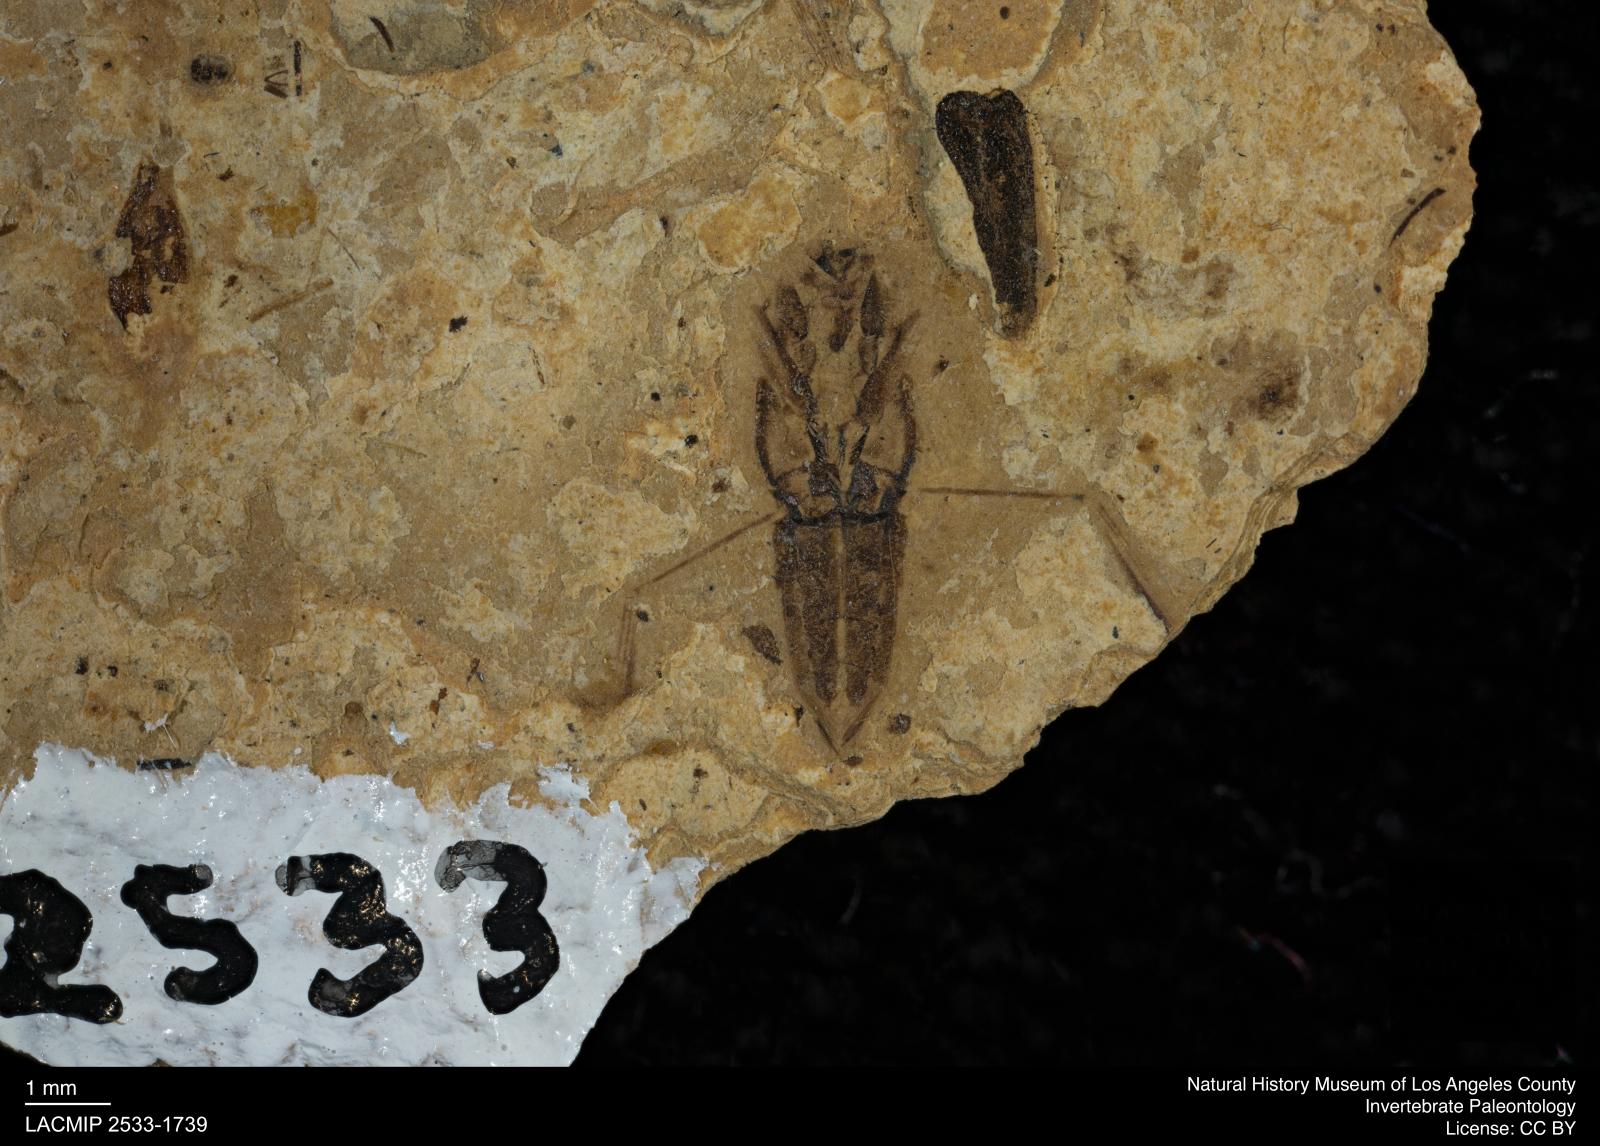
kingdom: Animalia
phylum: Arthropoda
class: Insecta
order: Hemiptera
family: Notonectidae
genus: Notonecta
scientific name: Notonecta
